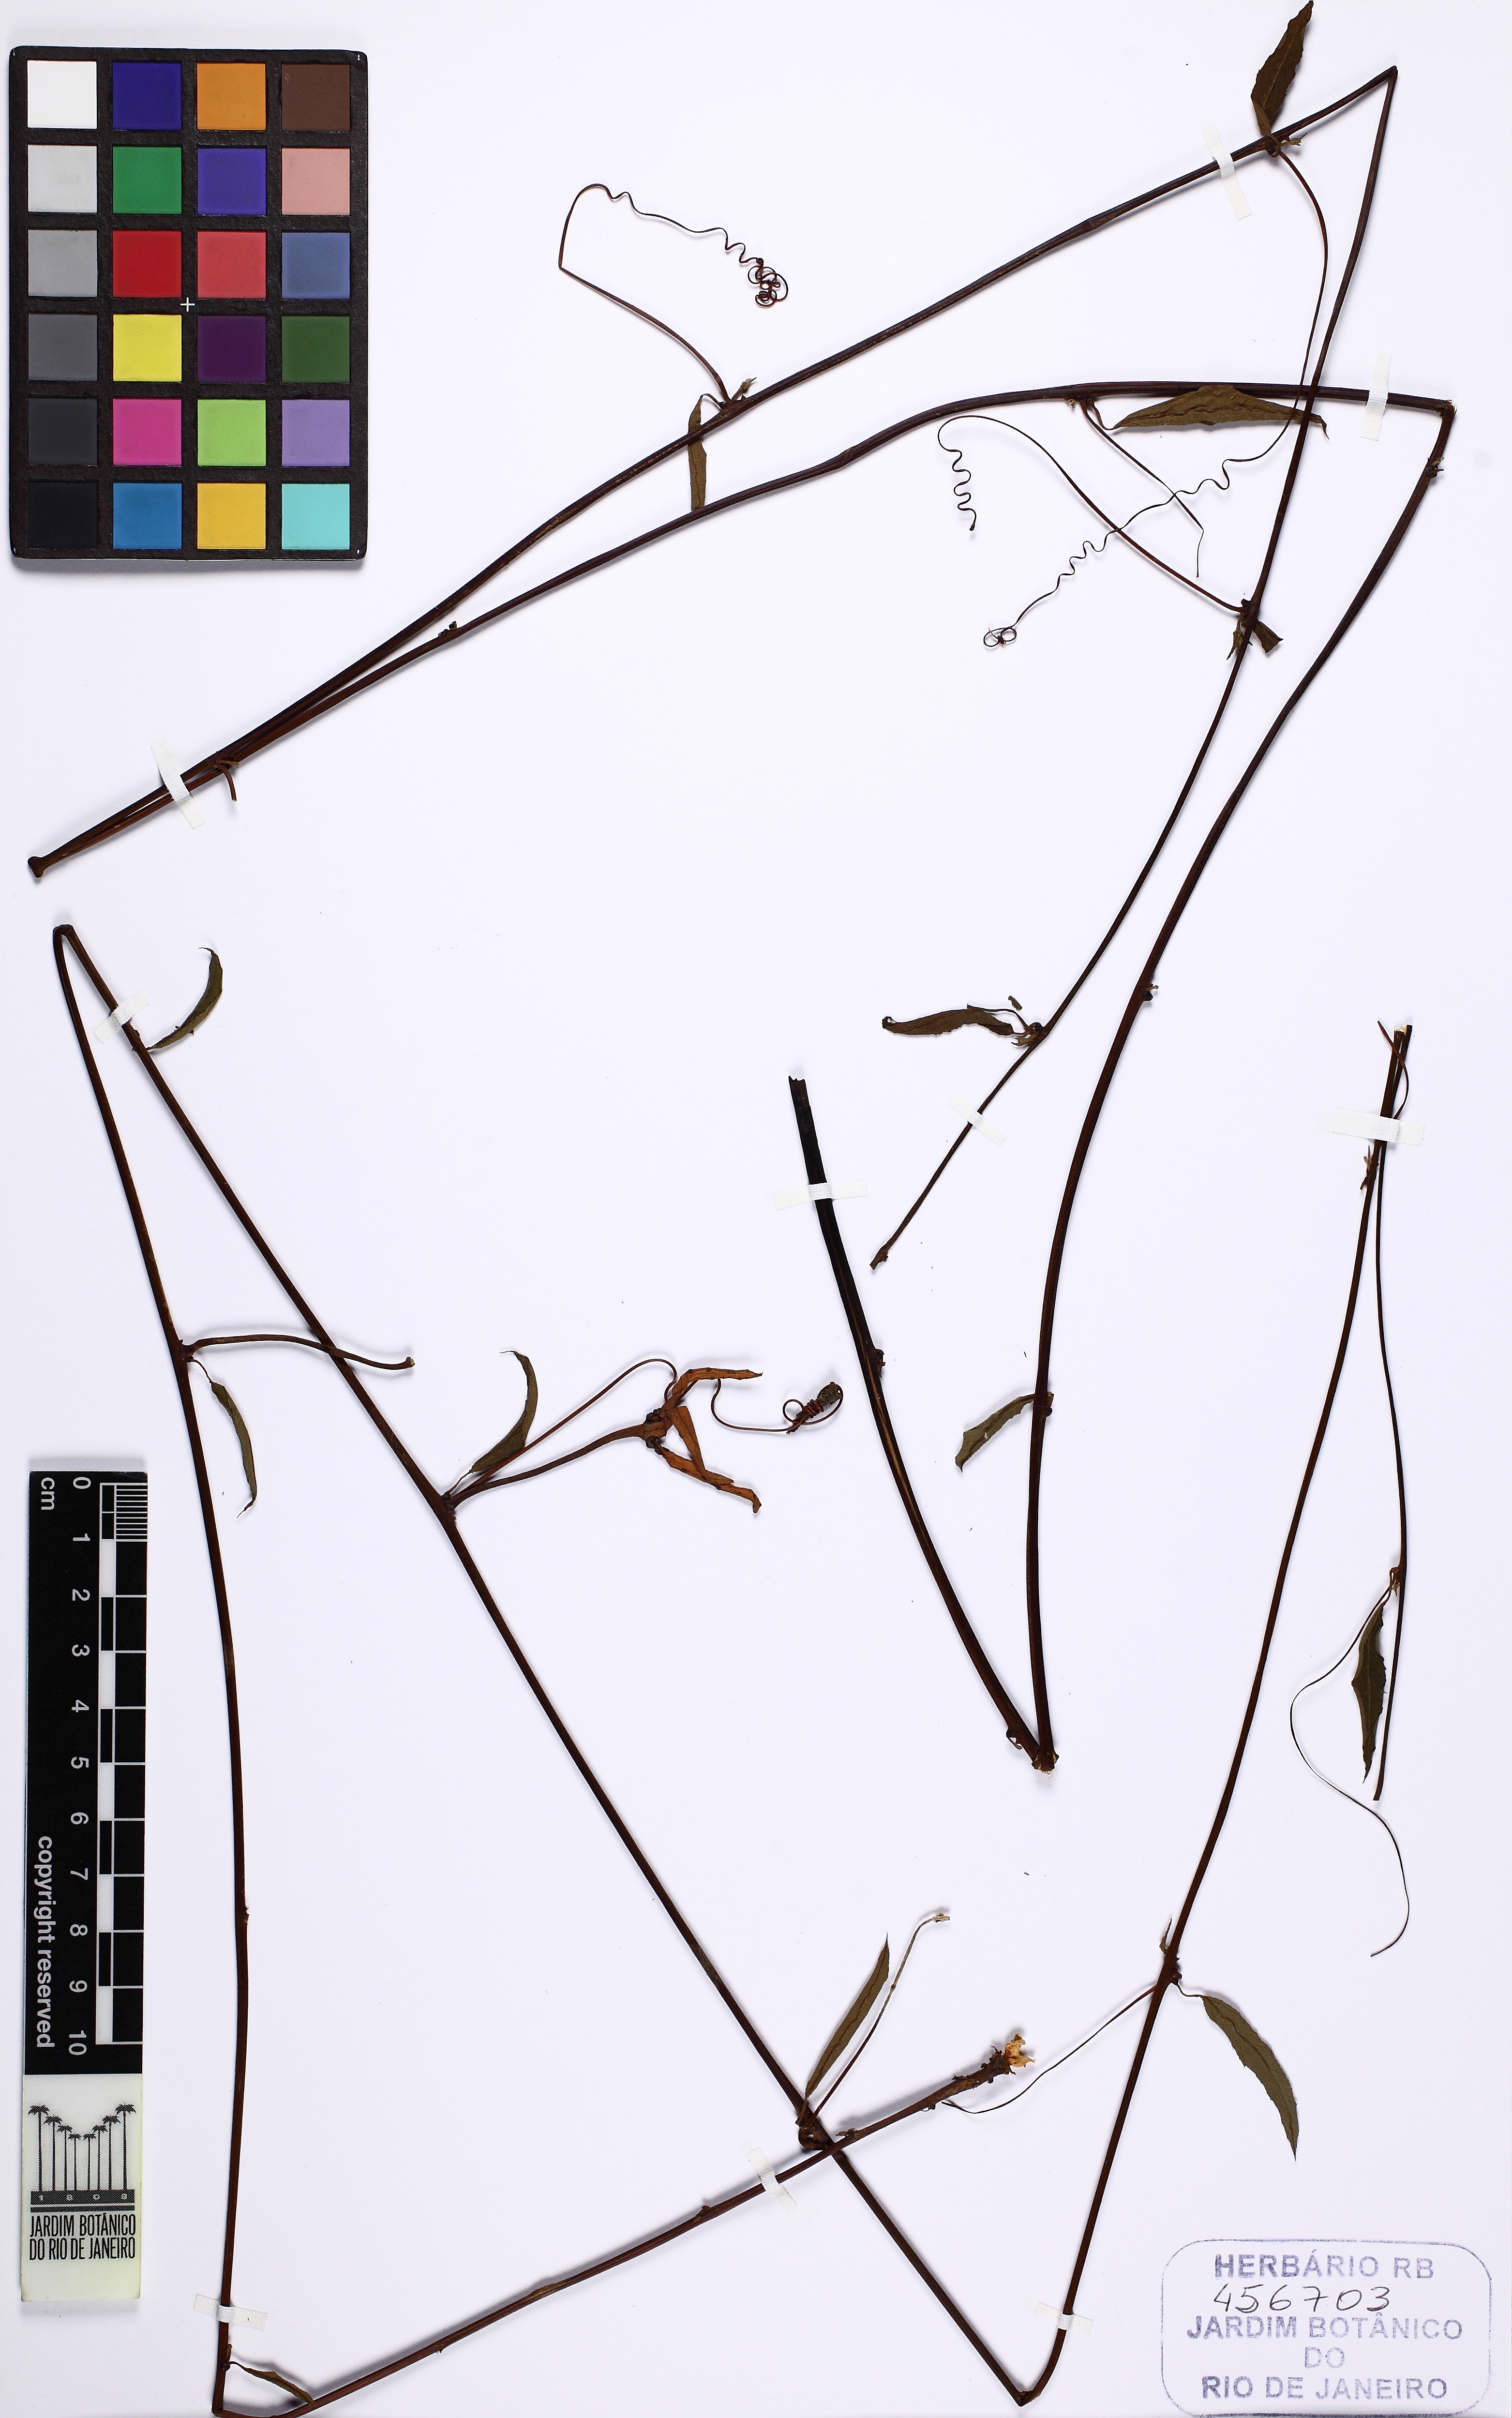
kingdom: Plantae
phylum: Tracheophyta
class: Magnoliopsida
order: Malpighiales
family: Passifloraceae
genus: Passiflora
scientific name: Passiflora vitifolia
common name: Perfumed passionflower
